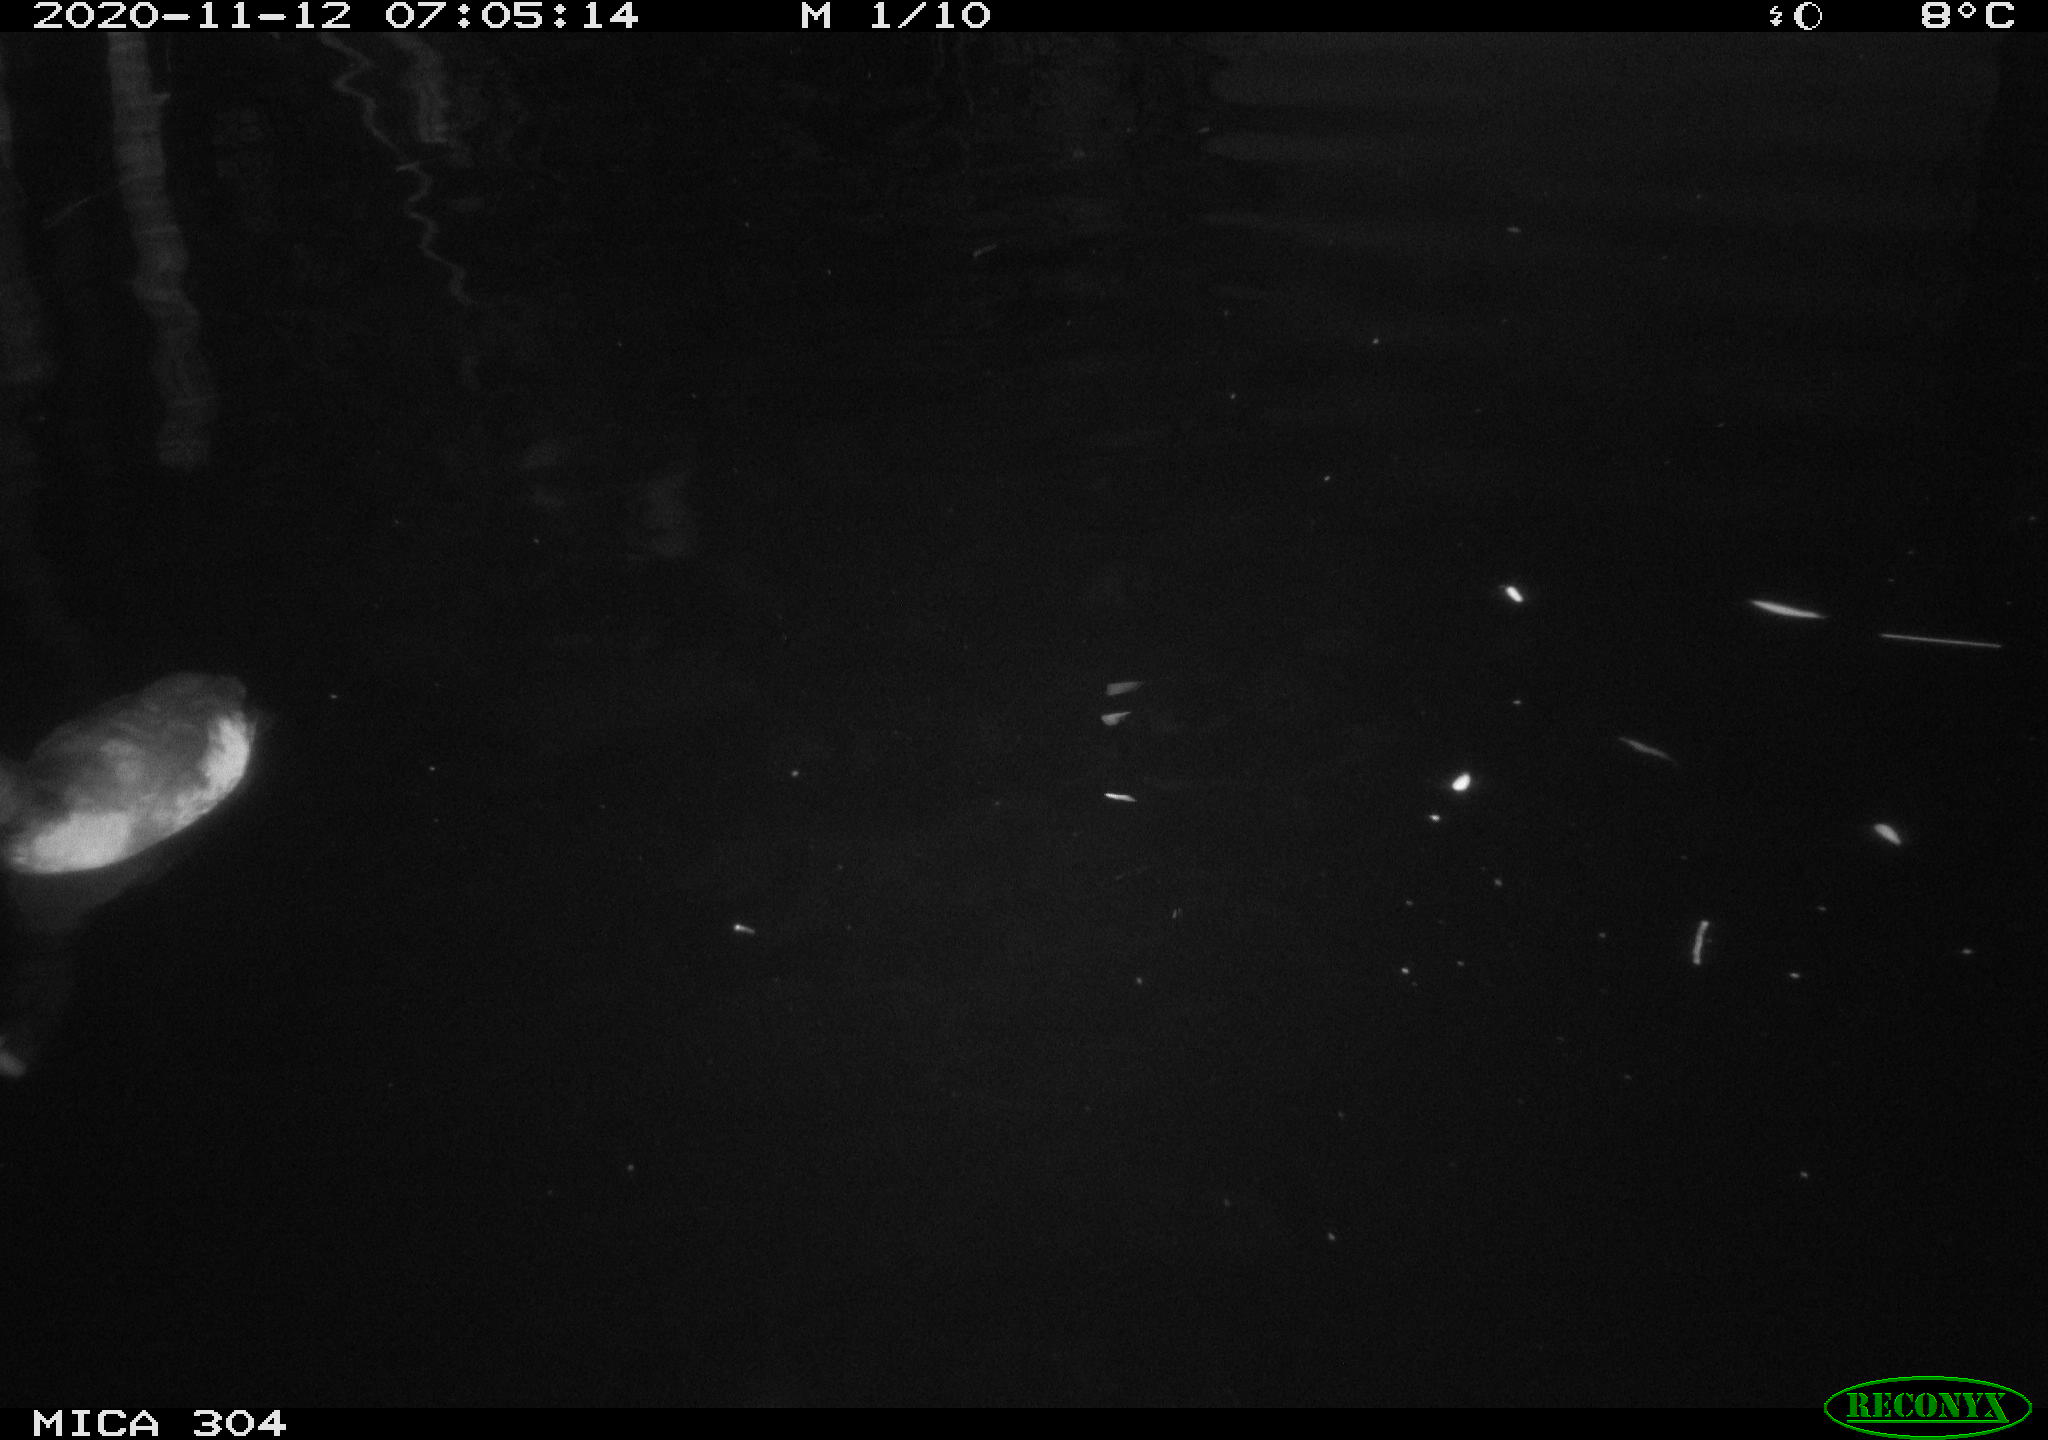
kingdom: Animalia
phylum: Chordata
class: Aves
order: Anseriformes
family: Anatidae
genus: Anas
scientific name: Anas platyrhynchos
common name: Mallard
